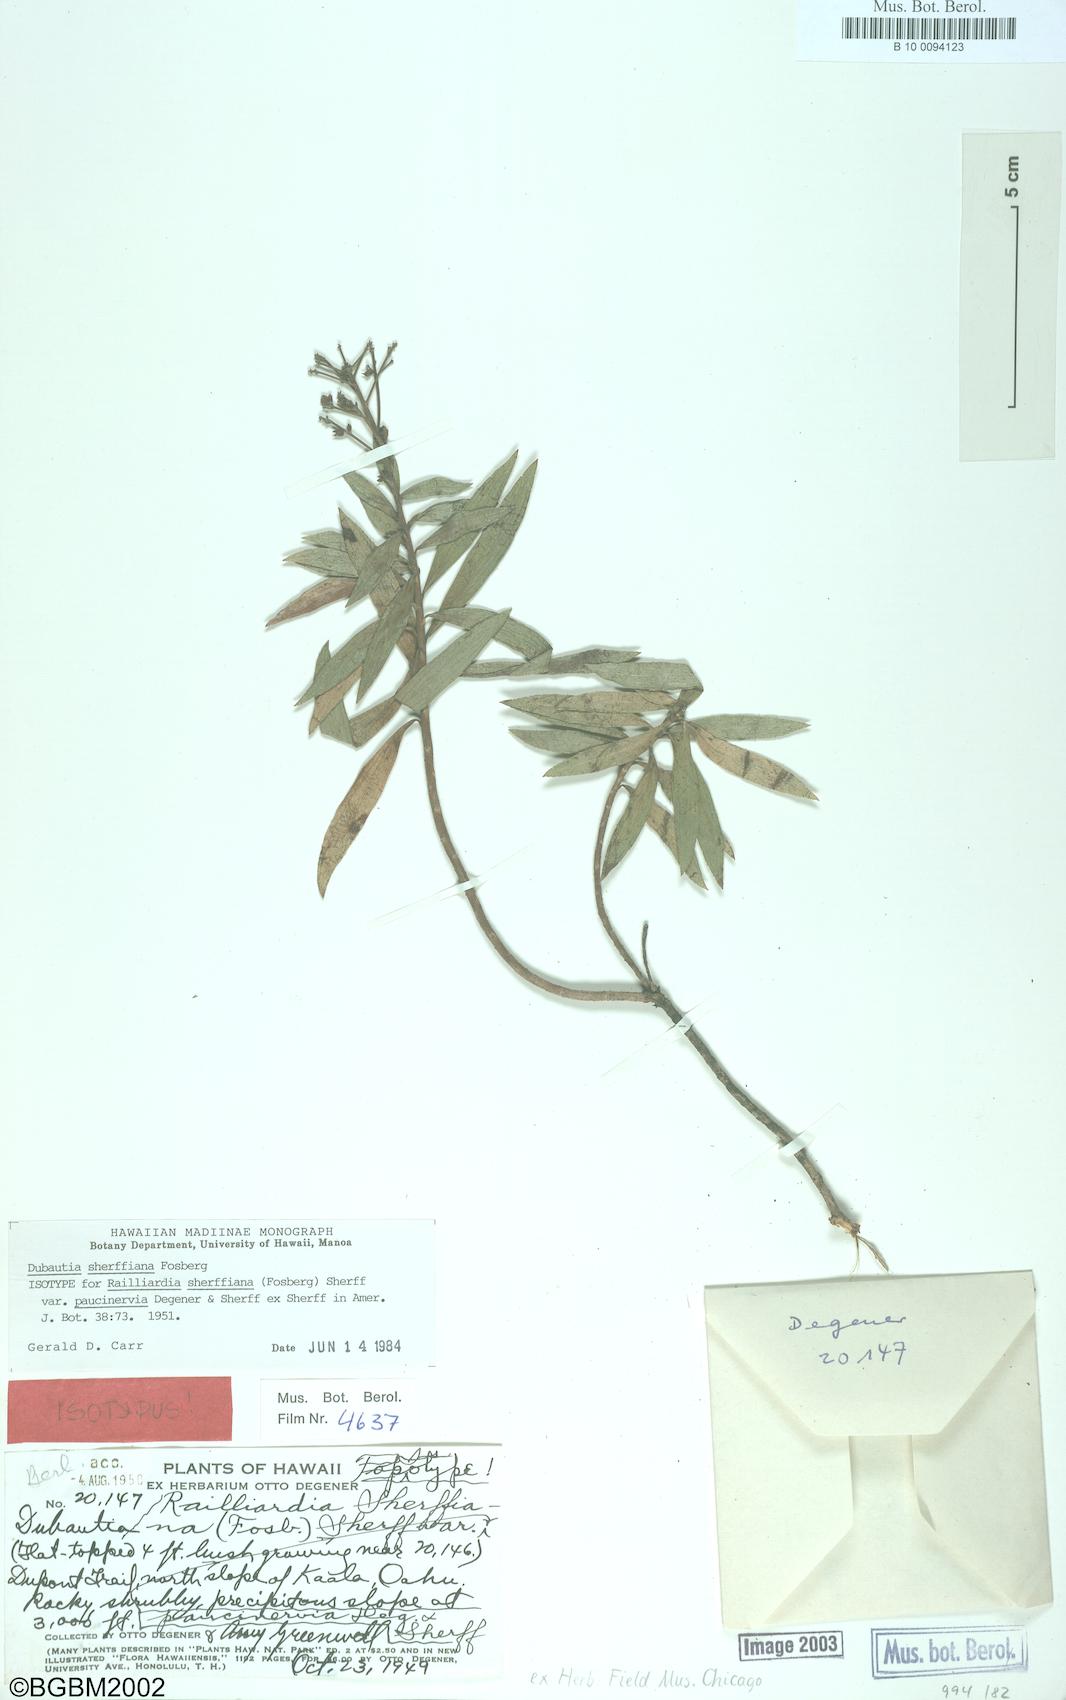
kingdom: Plantae
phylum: Tracheophyta
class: Magnoliopsida
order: Asterales
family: Asteraceae
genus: Dubautia
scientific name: Dubautia sherffiana
